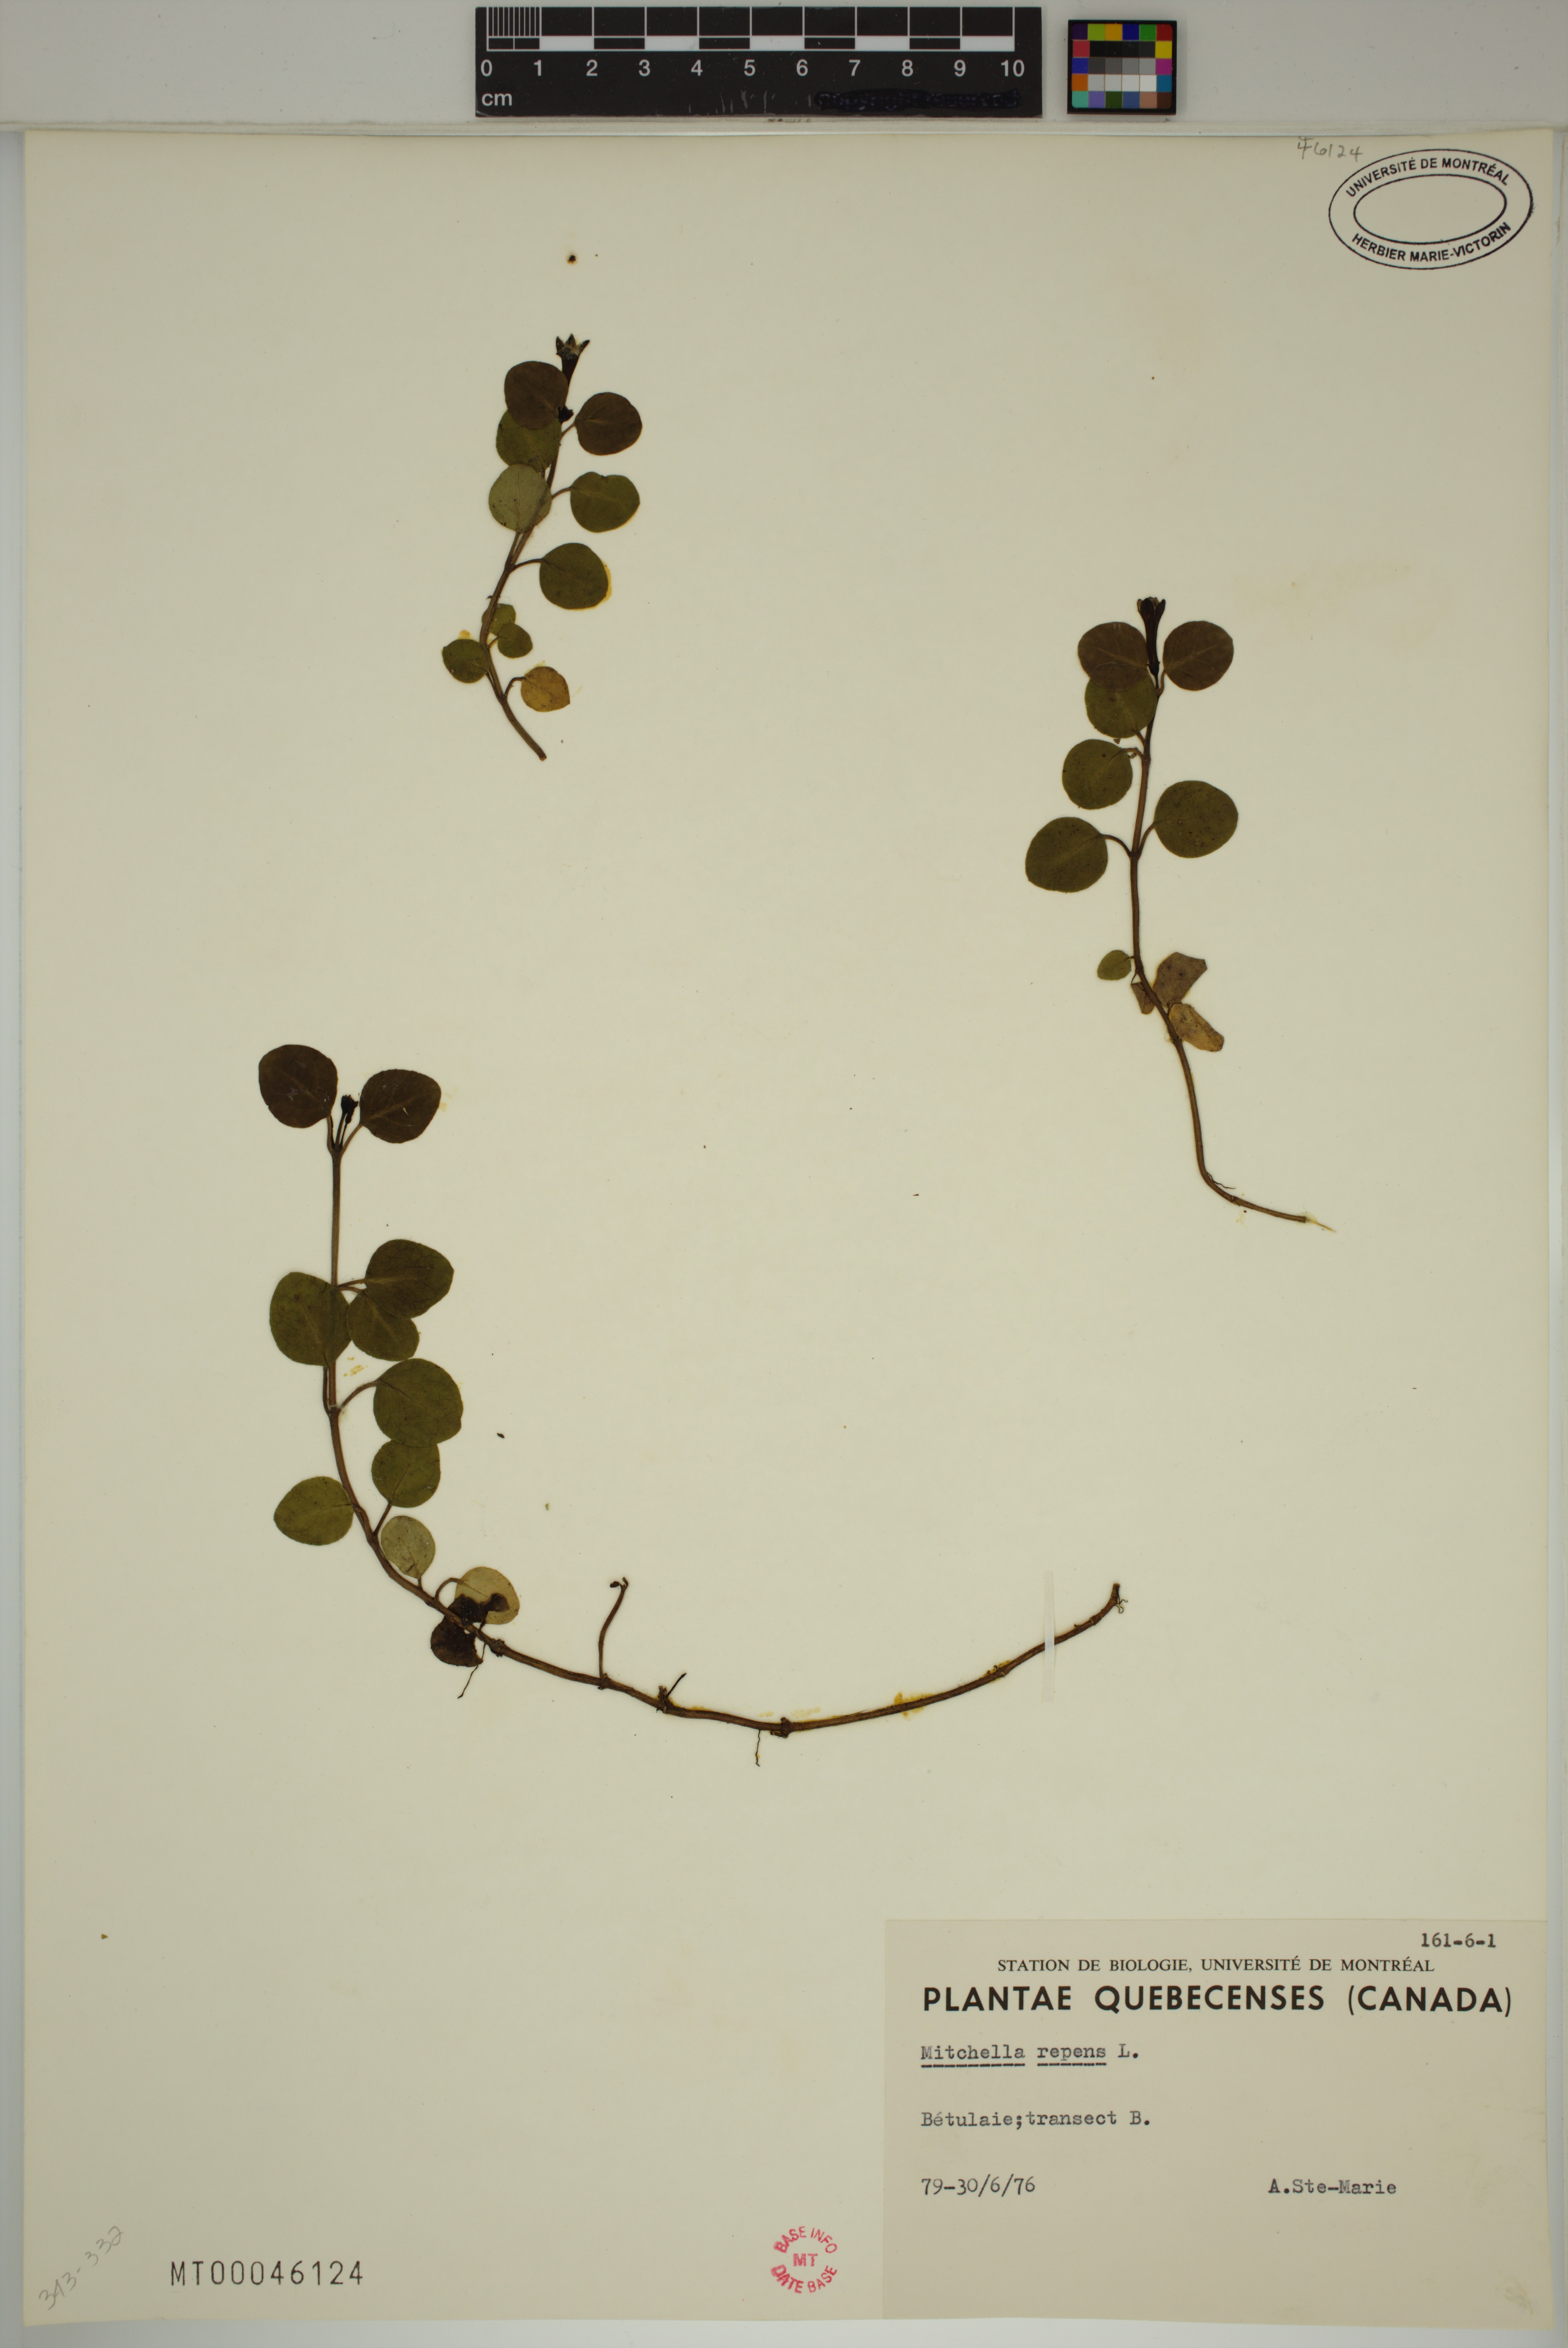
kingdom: Plantae
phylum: Tracheophyta
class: Magnoliopsida
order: Gentianales
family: Rubiaceae
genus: Mitchella
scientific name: Mitchella repens
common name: Partridge-berry
